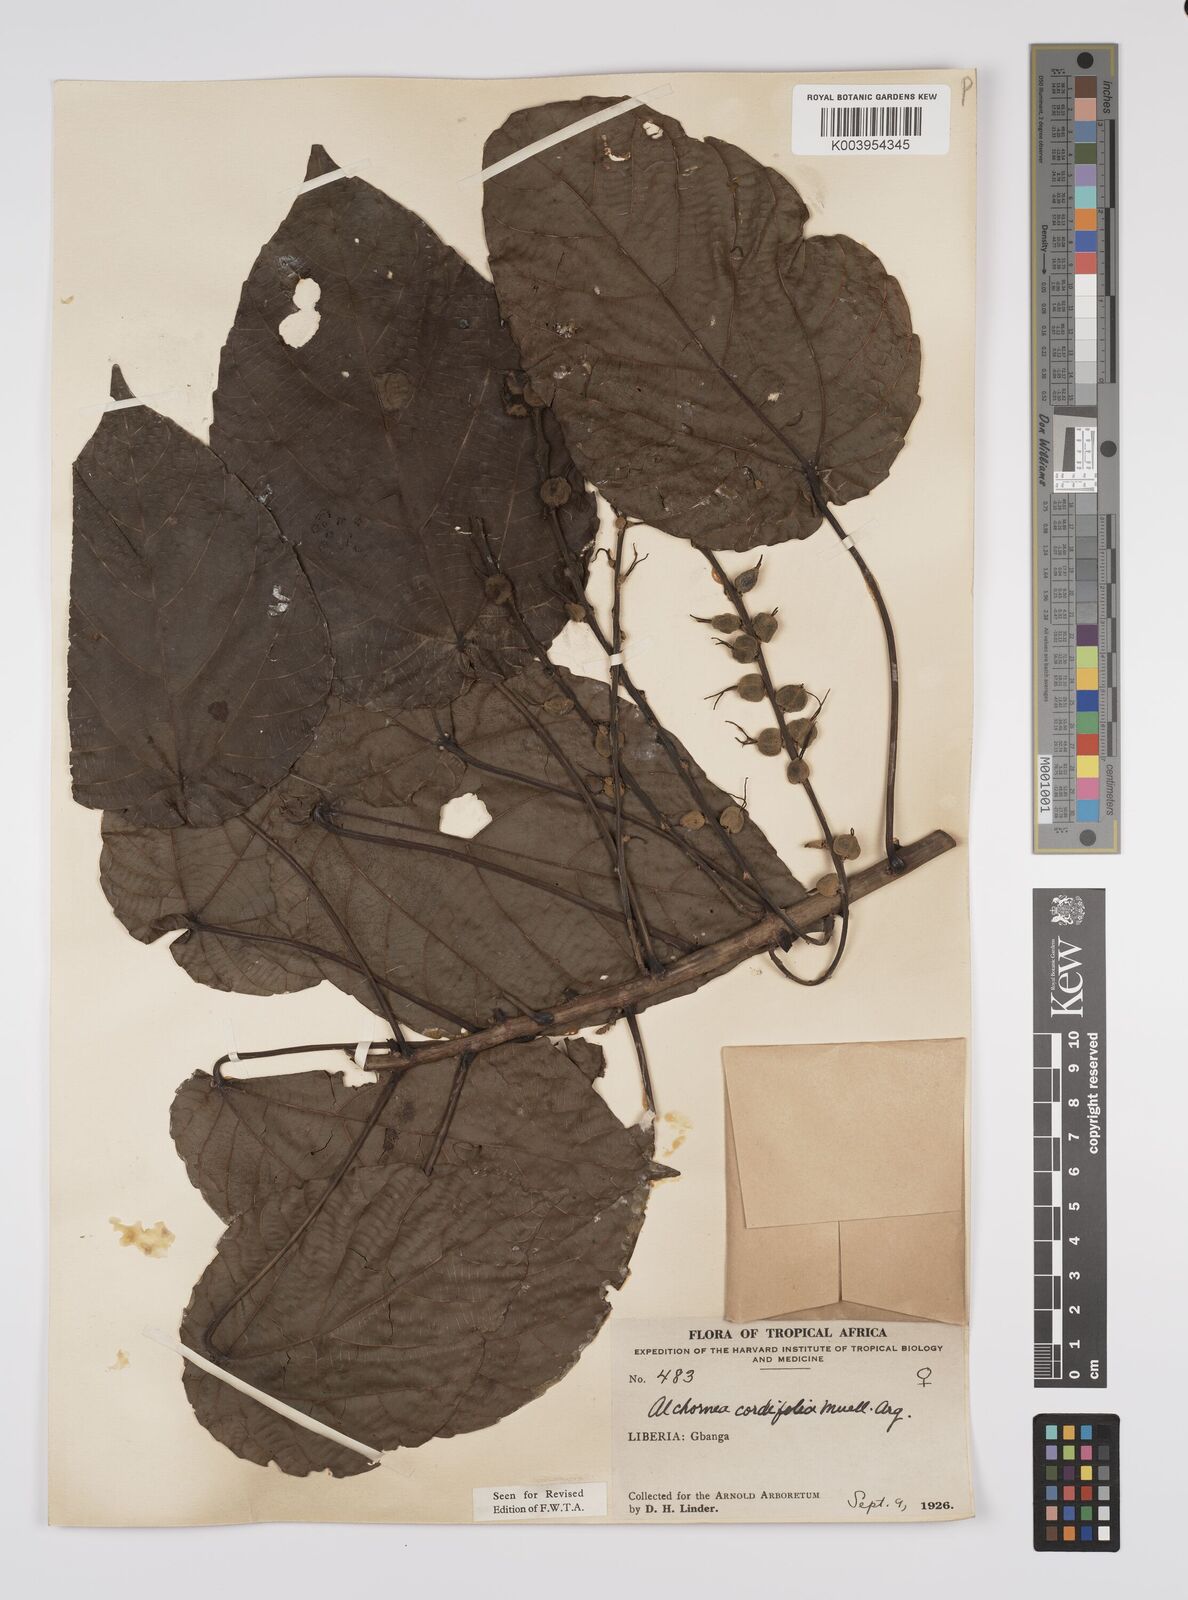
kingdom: Plantae
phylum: Tracheophyta
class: Magnoliopsida
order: Malpighiales
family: Euphorbiaceae
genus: Alchornea
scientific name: Alchornea cordifolia
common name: Christmasbush
